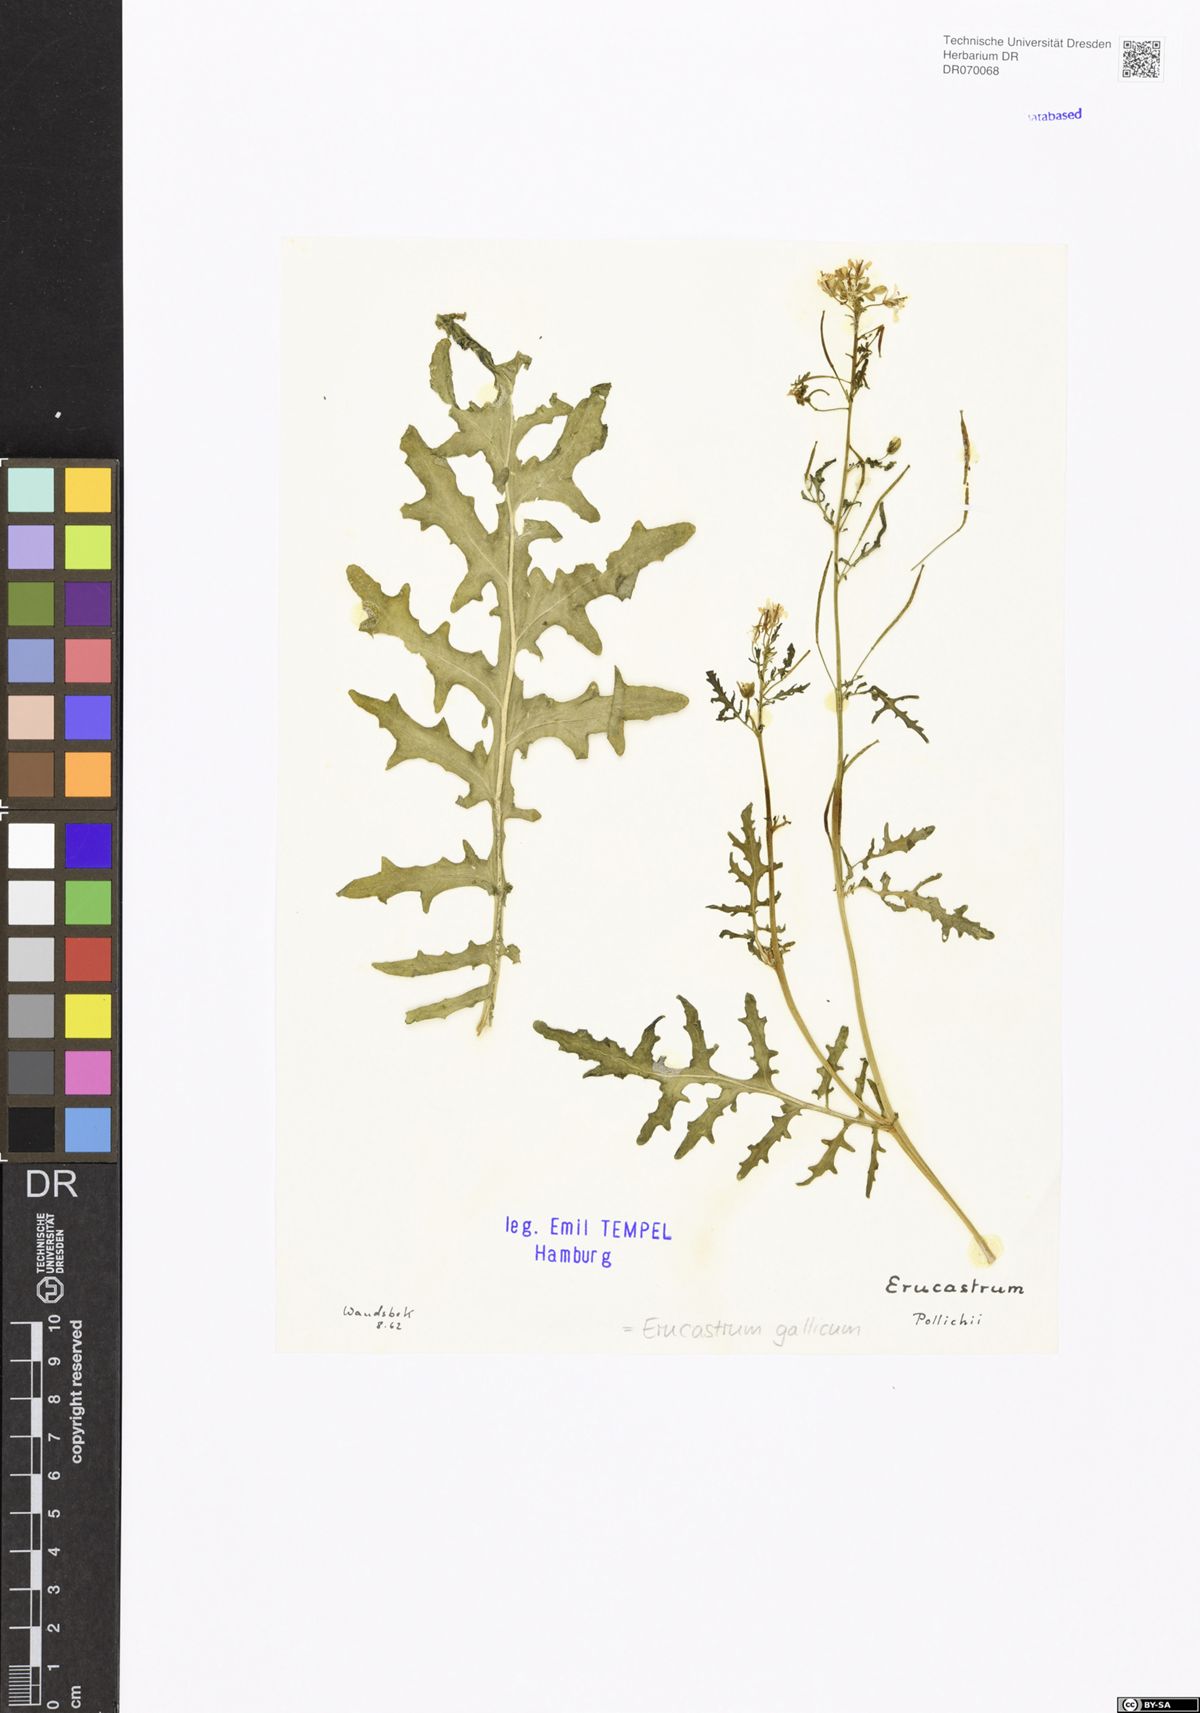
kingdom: Plantae
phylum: Tracheophyta
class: Magnoliopsida
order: Brassicales
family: Brassicaceae
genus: Erucastrum
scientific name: Erucastrum gallicum
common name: Hairy rocket
